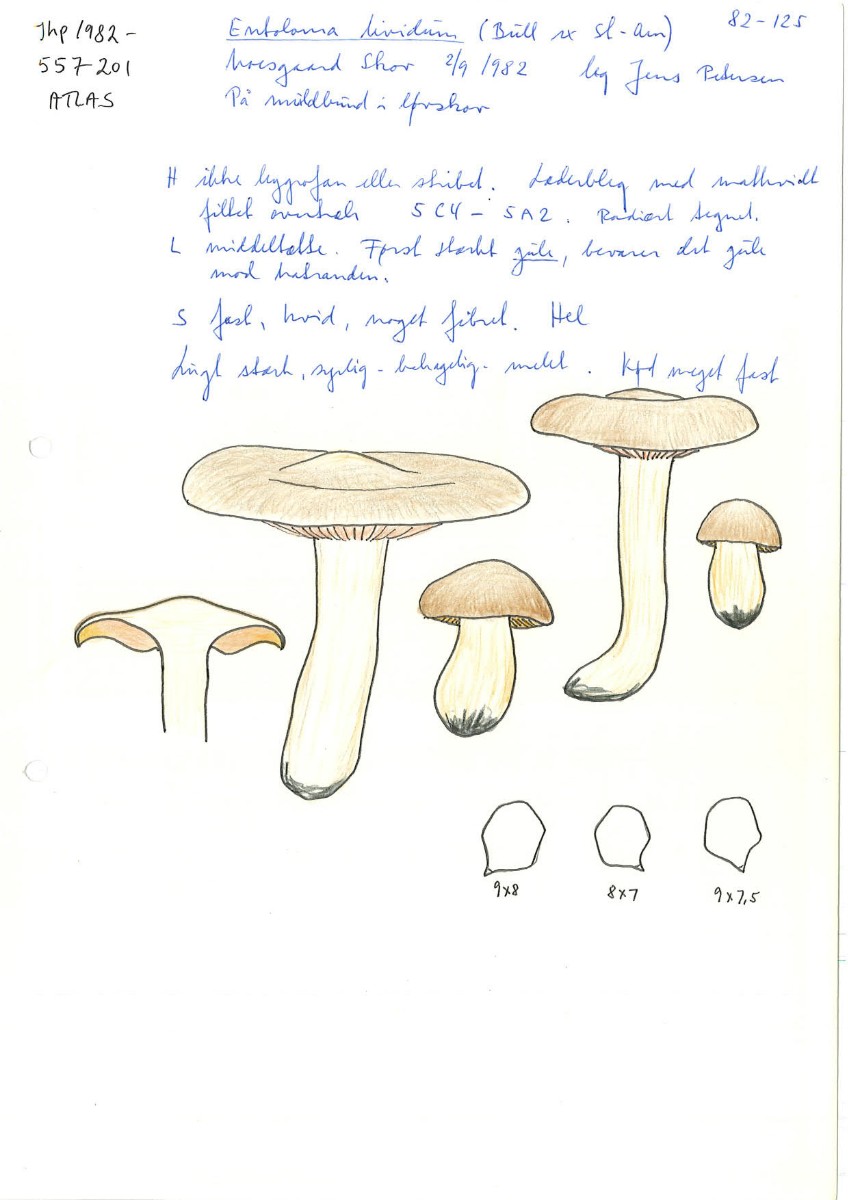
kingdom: Fungi
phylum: Basidiomycota
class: Agaricomycetes
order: Agaricales
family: Entolomataceae
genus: Entoloma
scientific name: Entoloma sinuatum
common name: giftig rødblad
